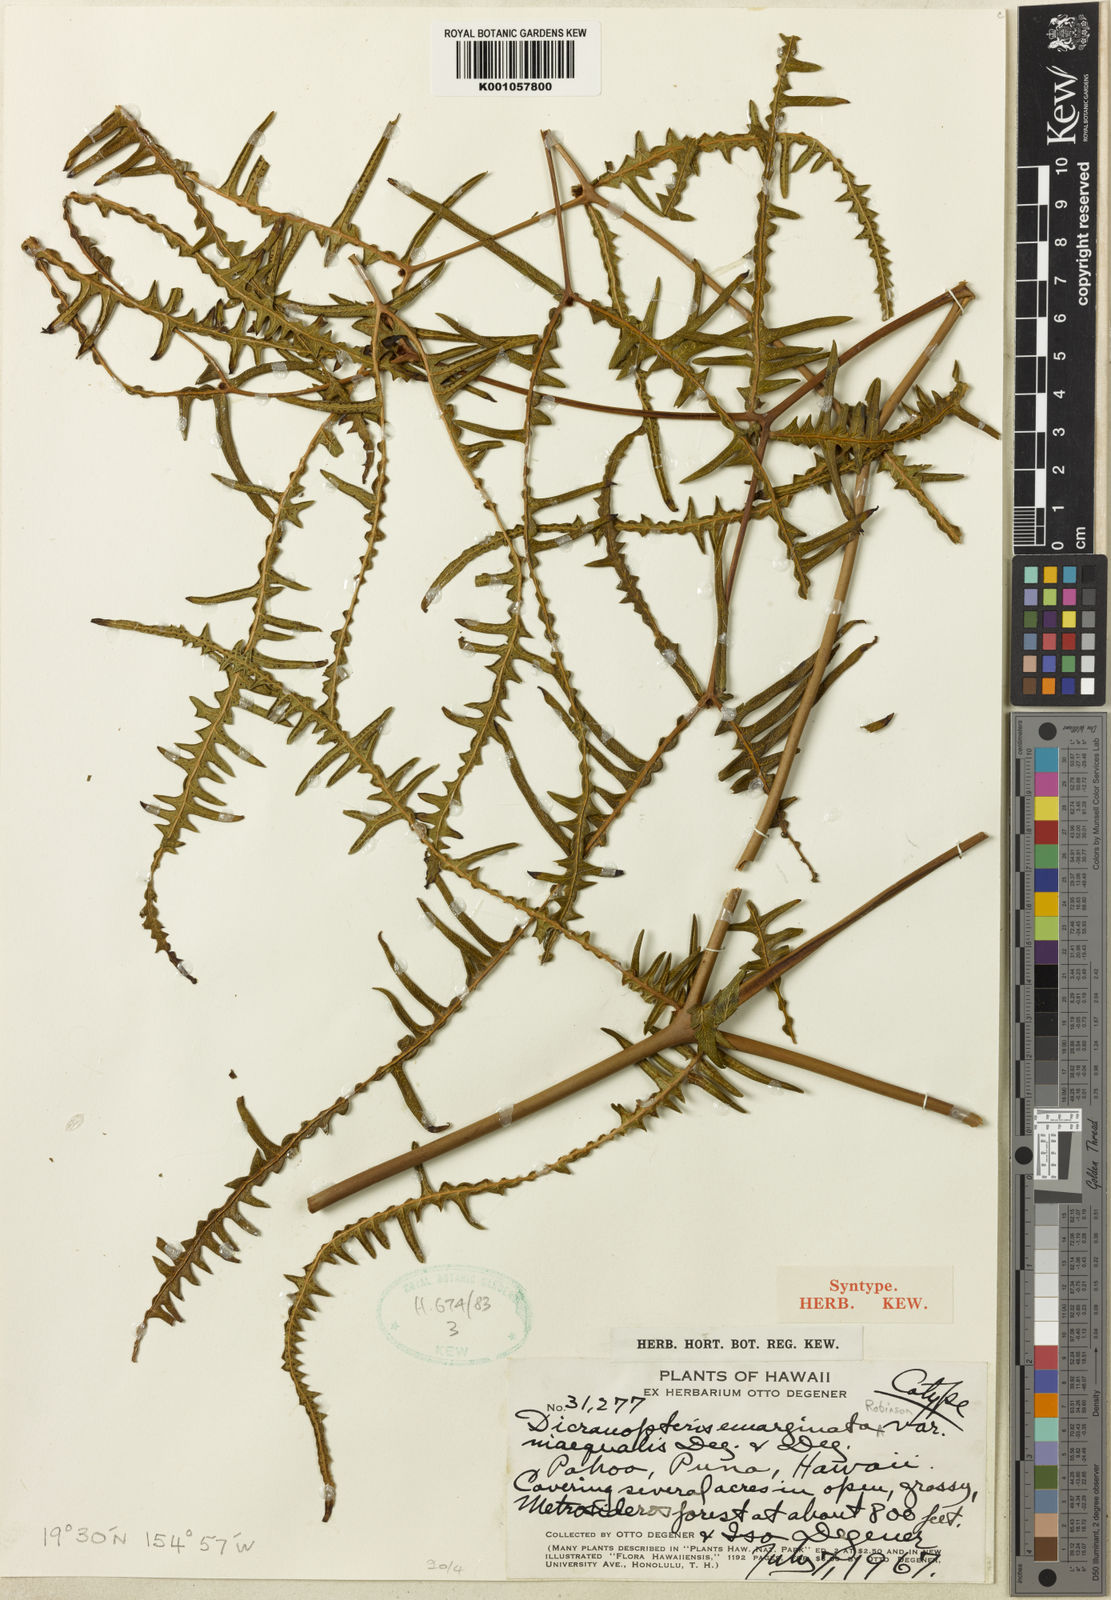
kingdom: Plantae
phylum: Tracheophyta
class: Polypodiopsida
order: Gleicheniales
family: Gleicheniaceae
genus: Dicranopteris
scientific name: Dicranopteris linearis
